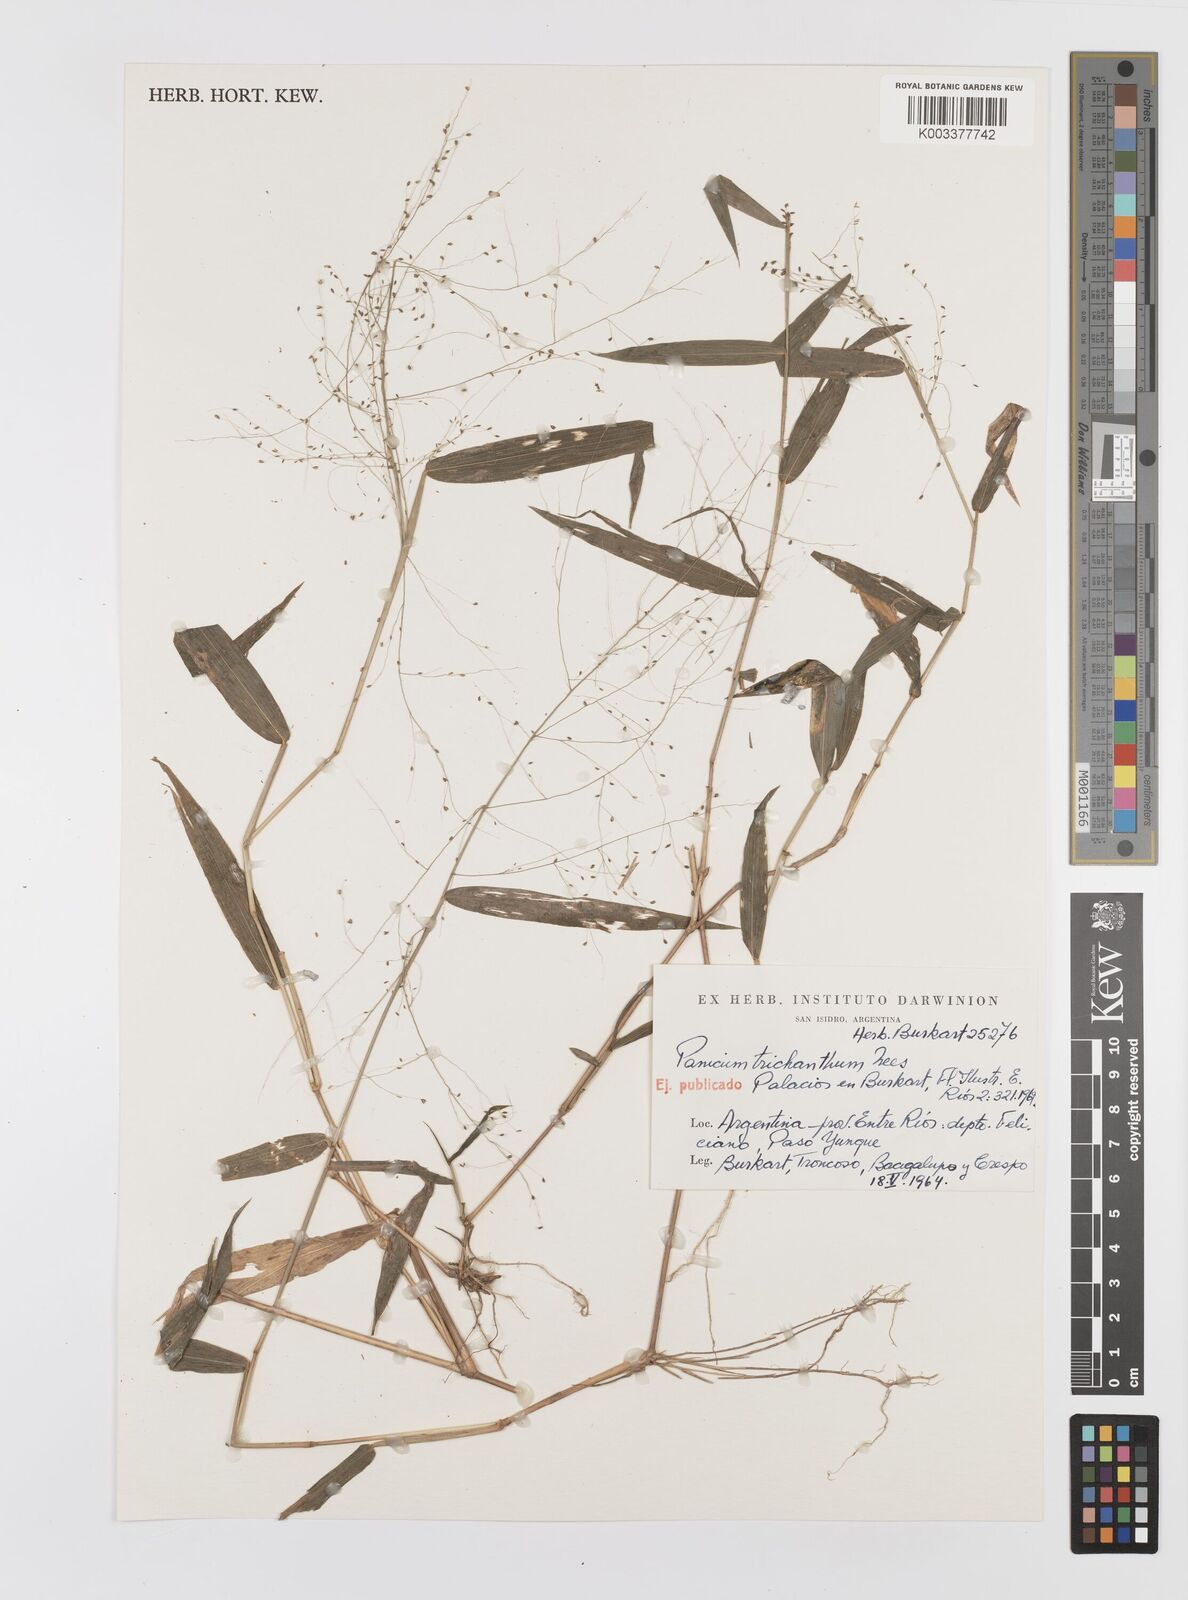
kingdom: Plantae
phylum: Tracheophyta
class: Liliopsida
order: Poales
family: Poaceae
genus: Panicum
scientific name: Panicum trichanthum
